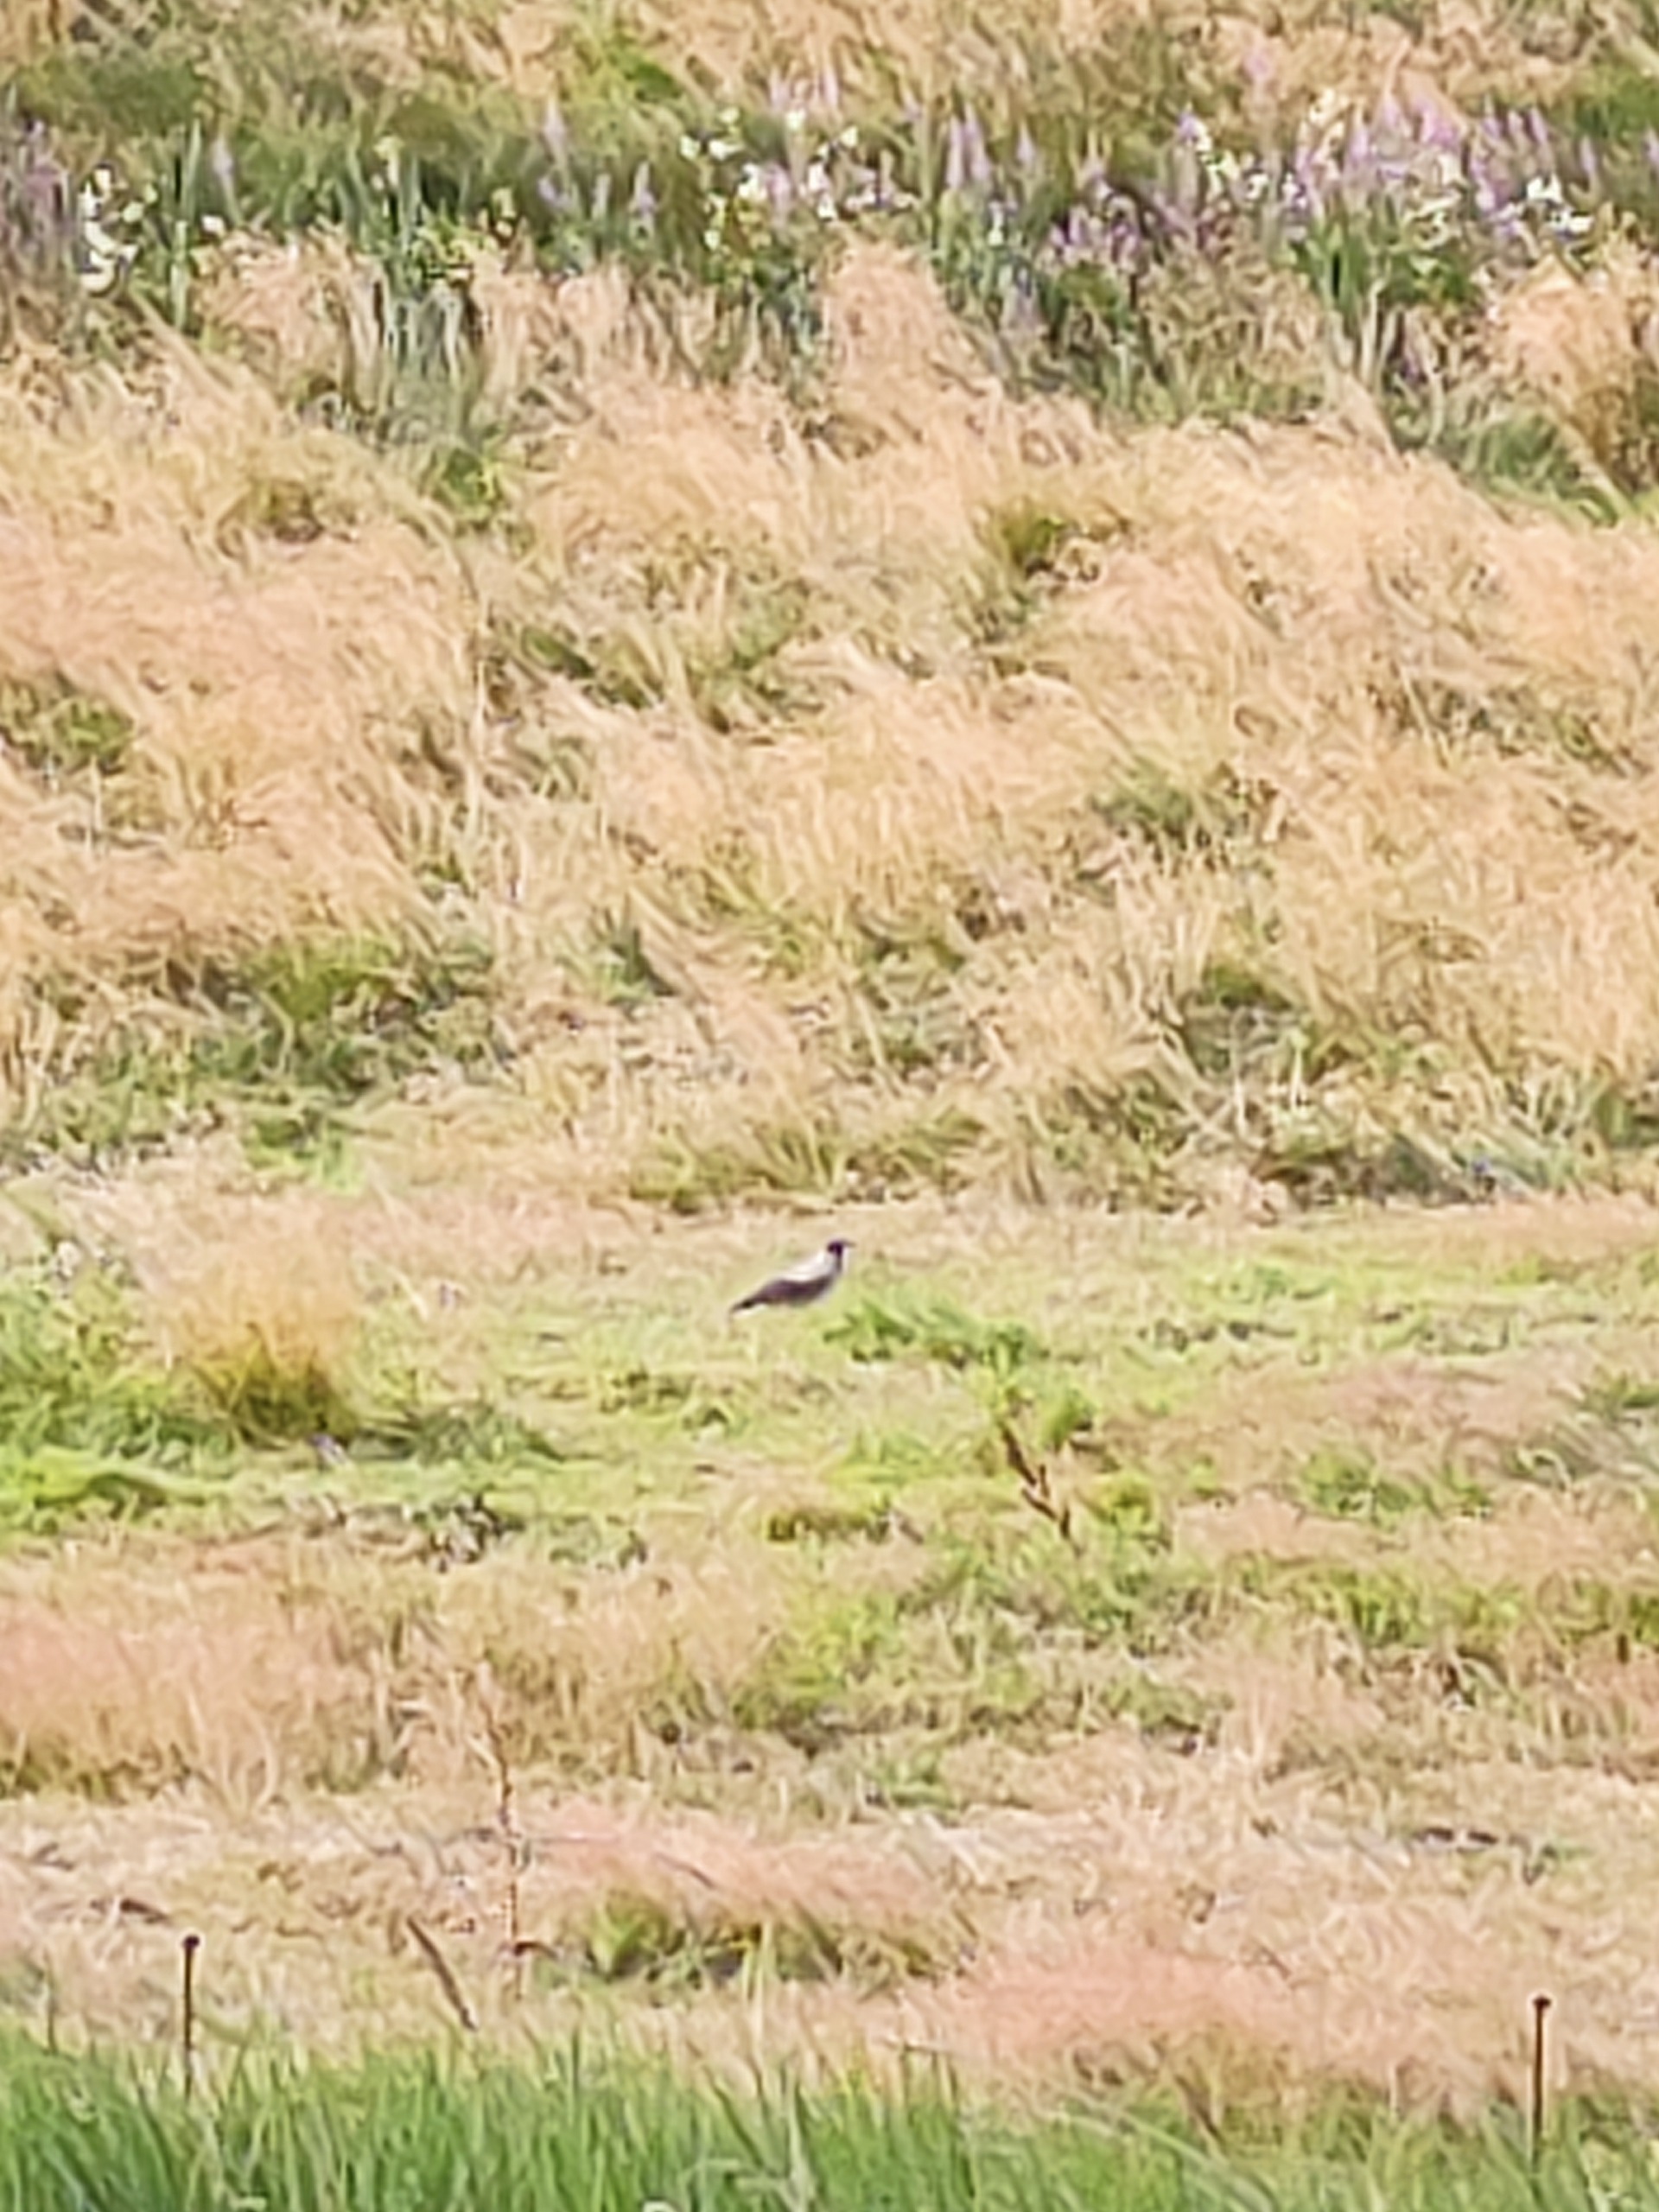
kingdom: Animalia
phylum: Chordata
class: Aves
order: Passeriformes
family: Corvidae
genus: Corvus
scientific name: Corvus cornix
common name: Gråkrage
